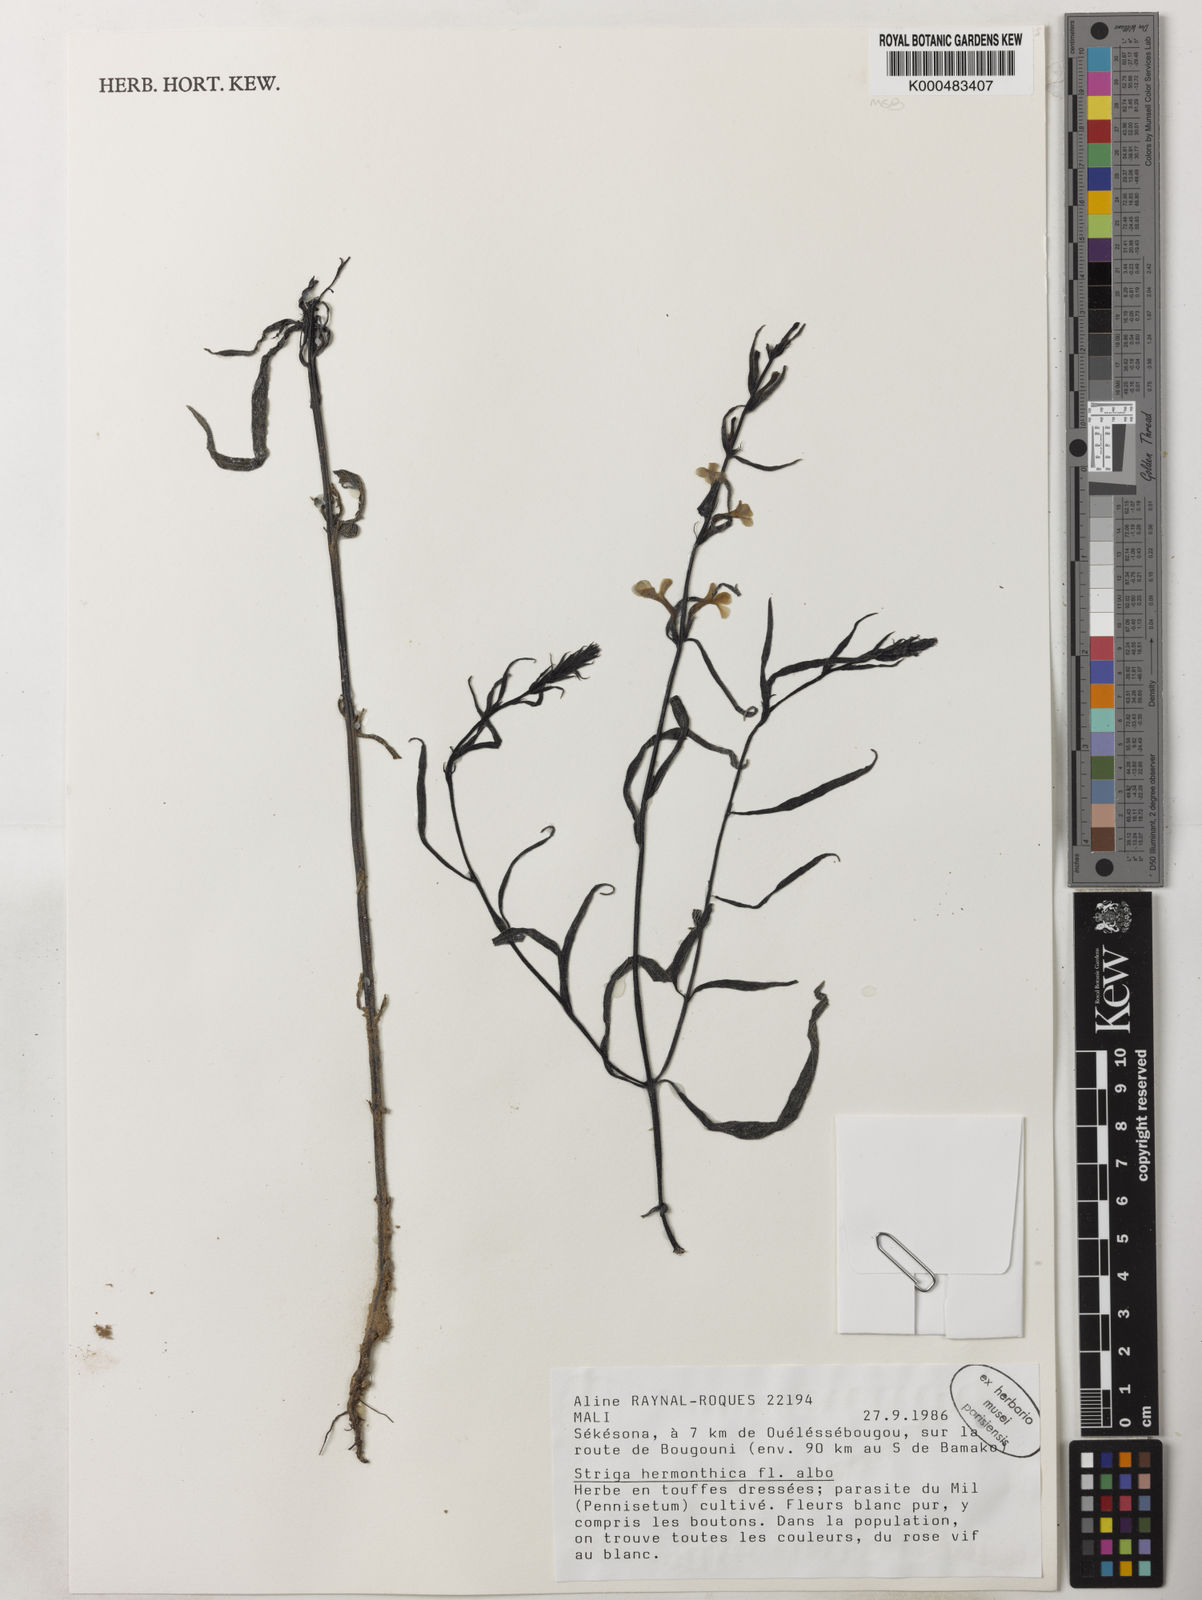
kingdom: Plantae
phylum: Tracheophyta
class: Magnoliopsida
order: Lamiales
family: Orobanchaceae
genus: Striga
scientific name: Striga hermonthica
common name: Purple witchweed
